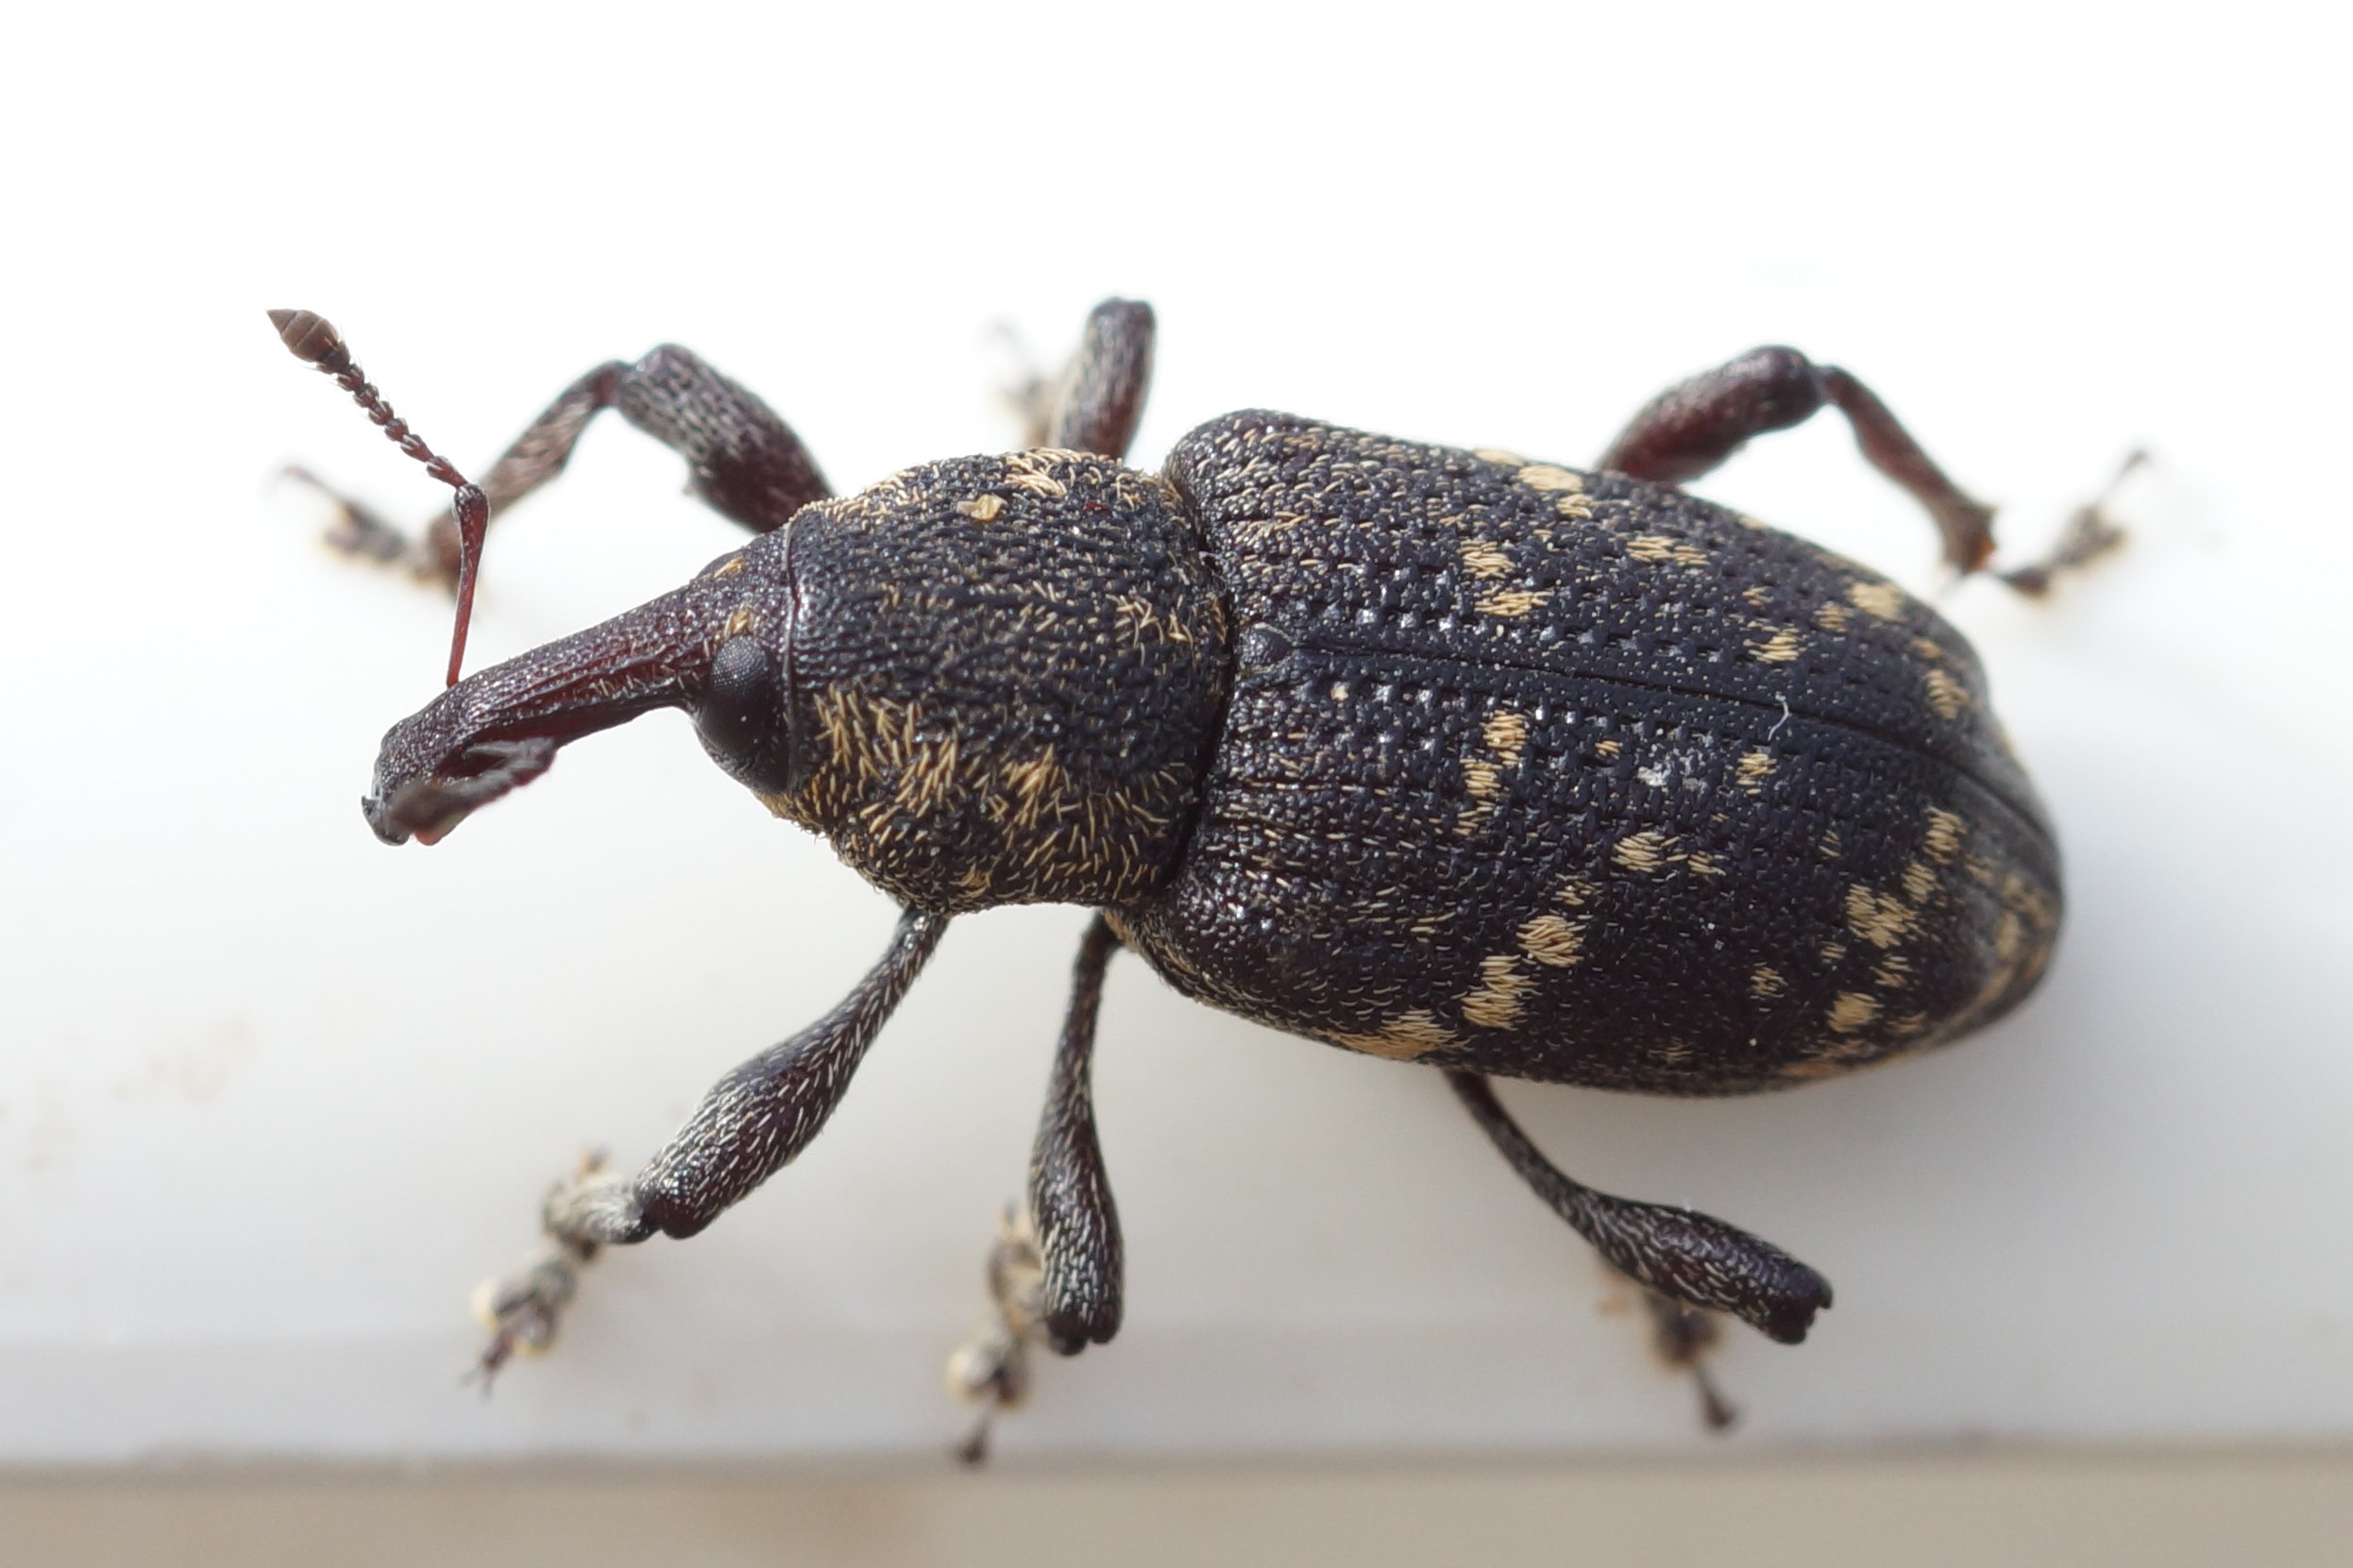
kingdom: Animalia
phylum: Arthropoda
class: Insecta
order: Coleoptera
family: Curculionidae
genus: Hylobius
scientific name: Hylobius abietis
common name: Stor nåletræsnudebille
